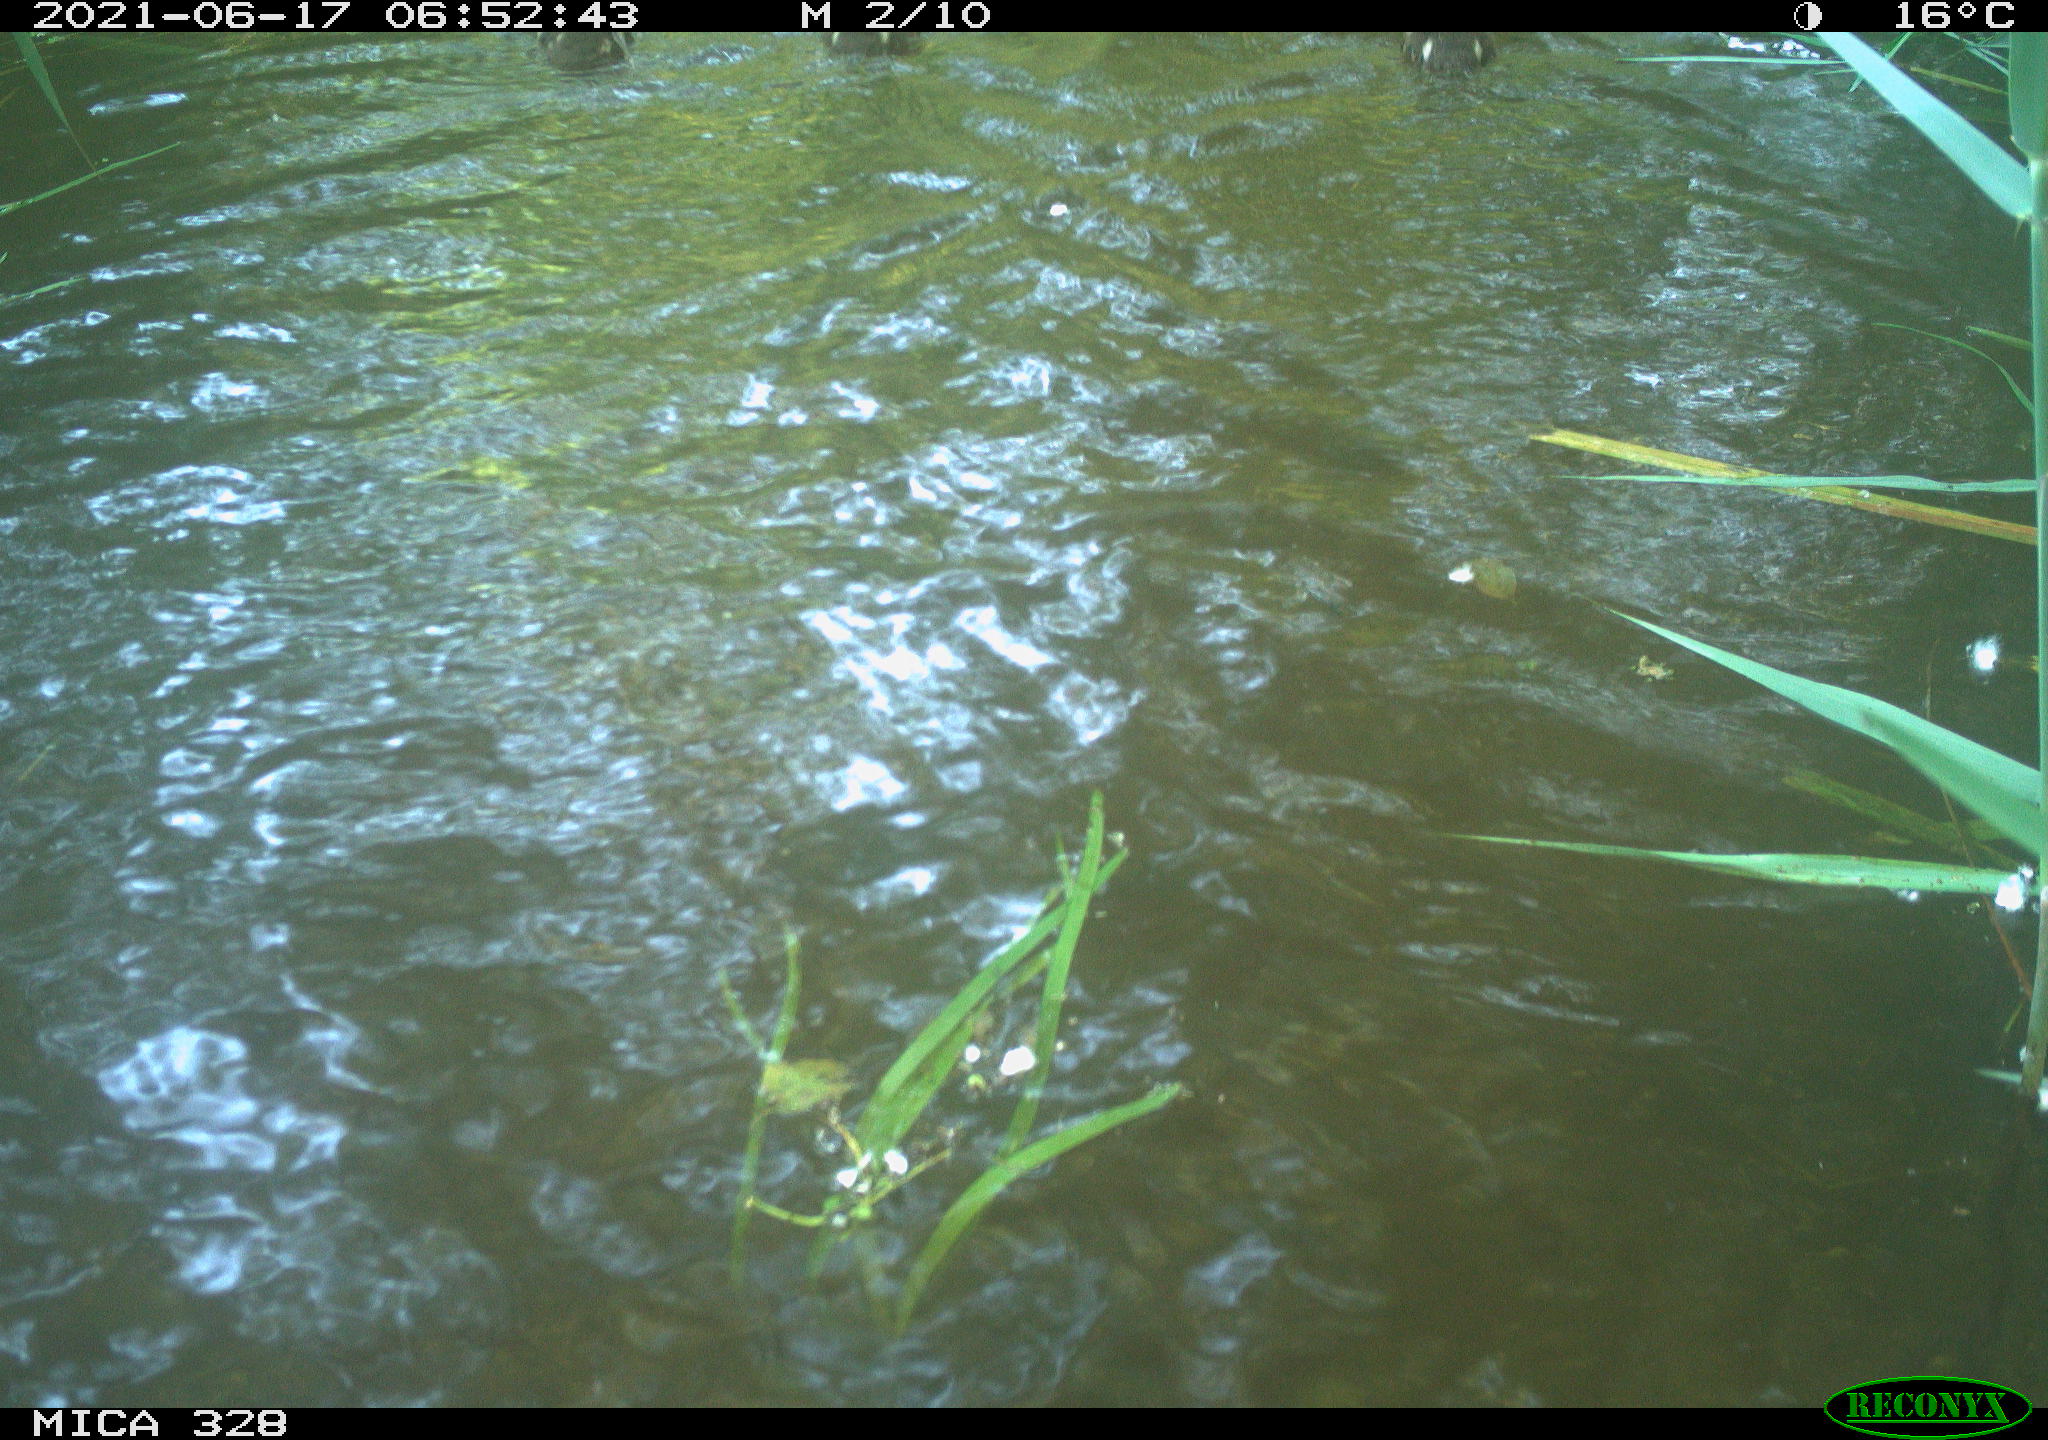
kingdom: Animalia
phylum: Chordata
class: Aves
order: Anseriformes
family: Anatidae
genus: Aix
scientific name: Aix galericulata
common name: Mandarin duck
